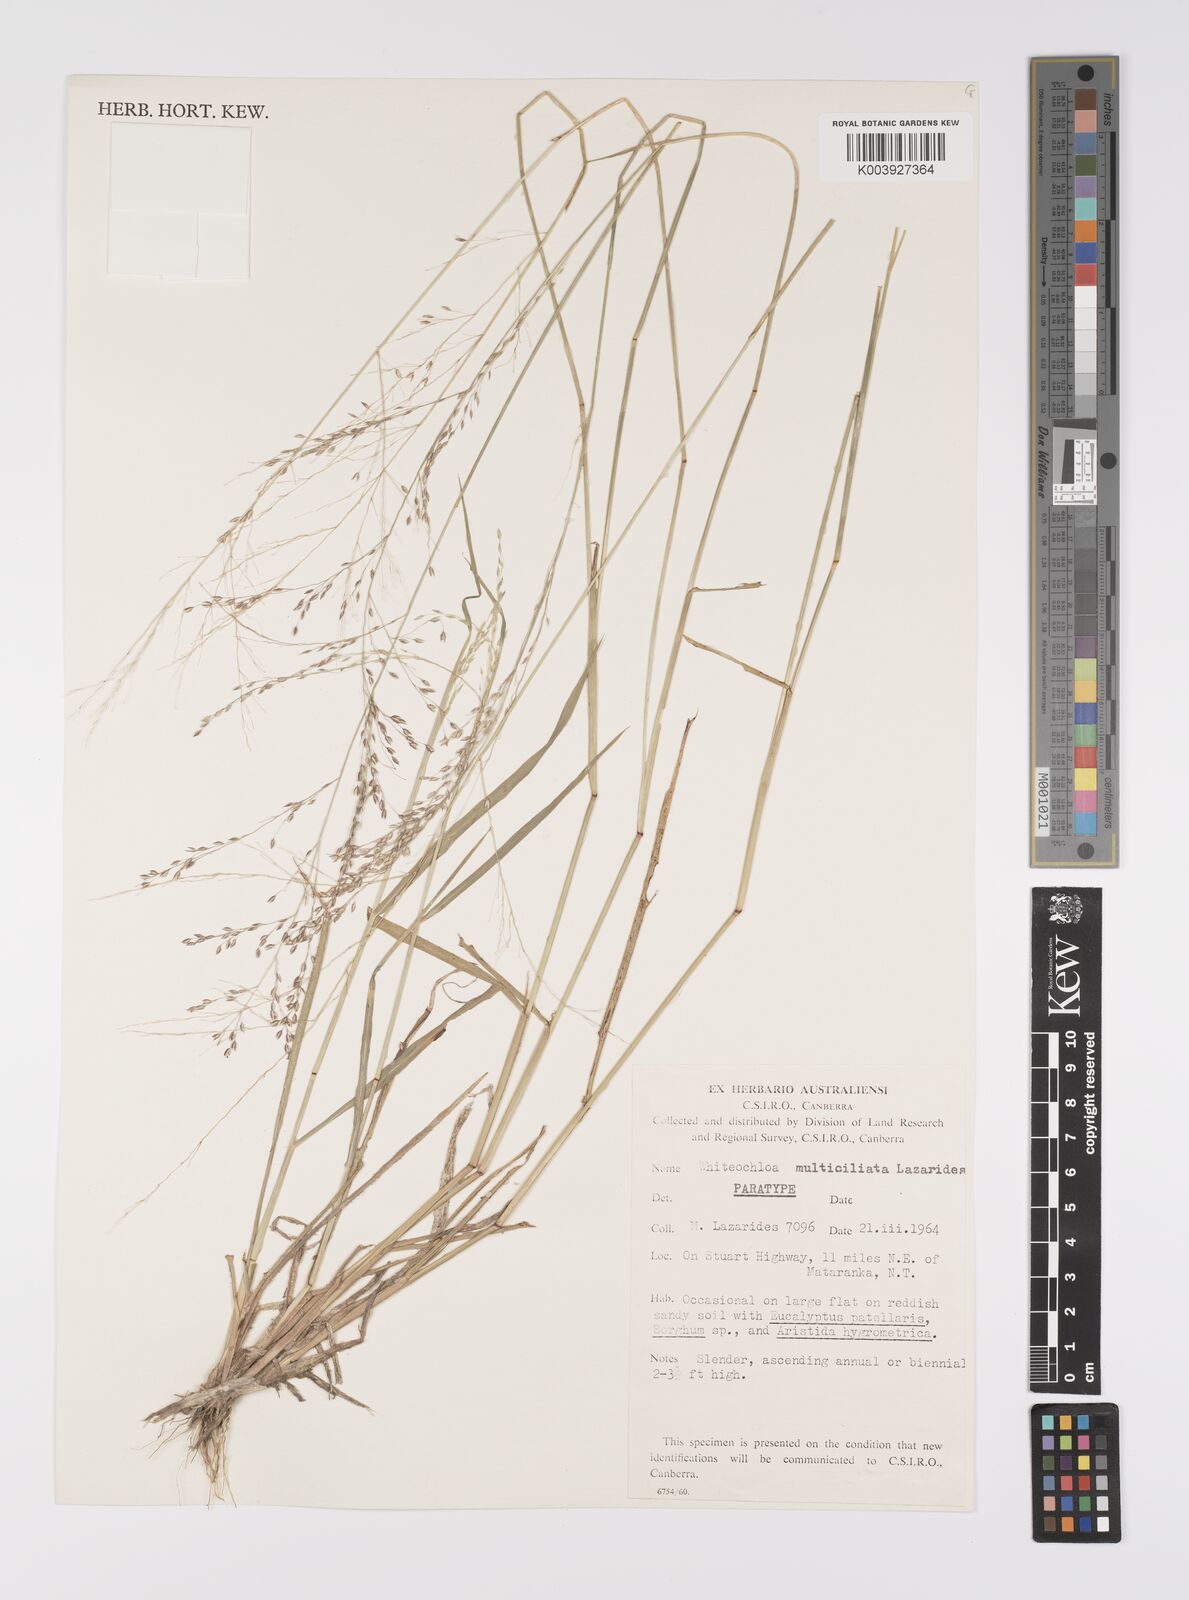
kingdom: Plantae
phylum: Tracheophyta
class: Liliopsida
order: Poales
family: Poaceae
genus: Whiteochloa
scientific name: Whiteochloa multiciliata
